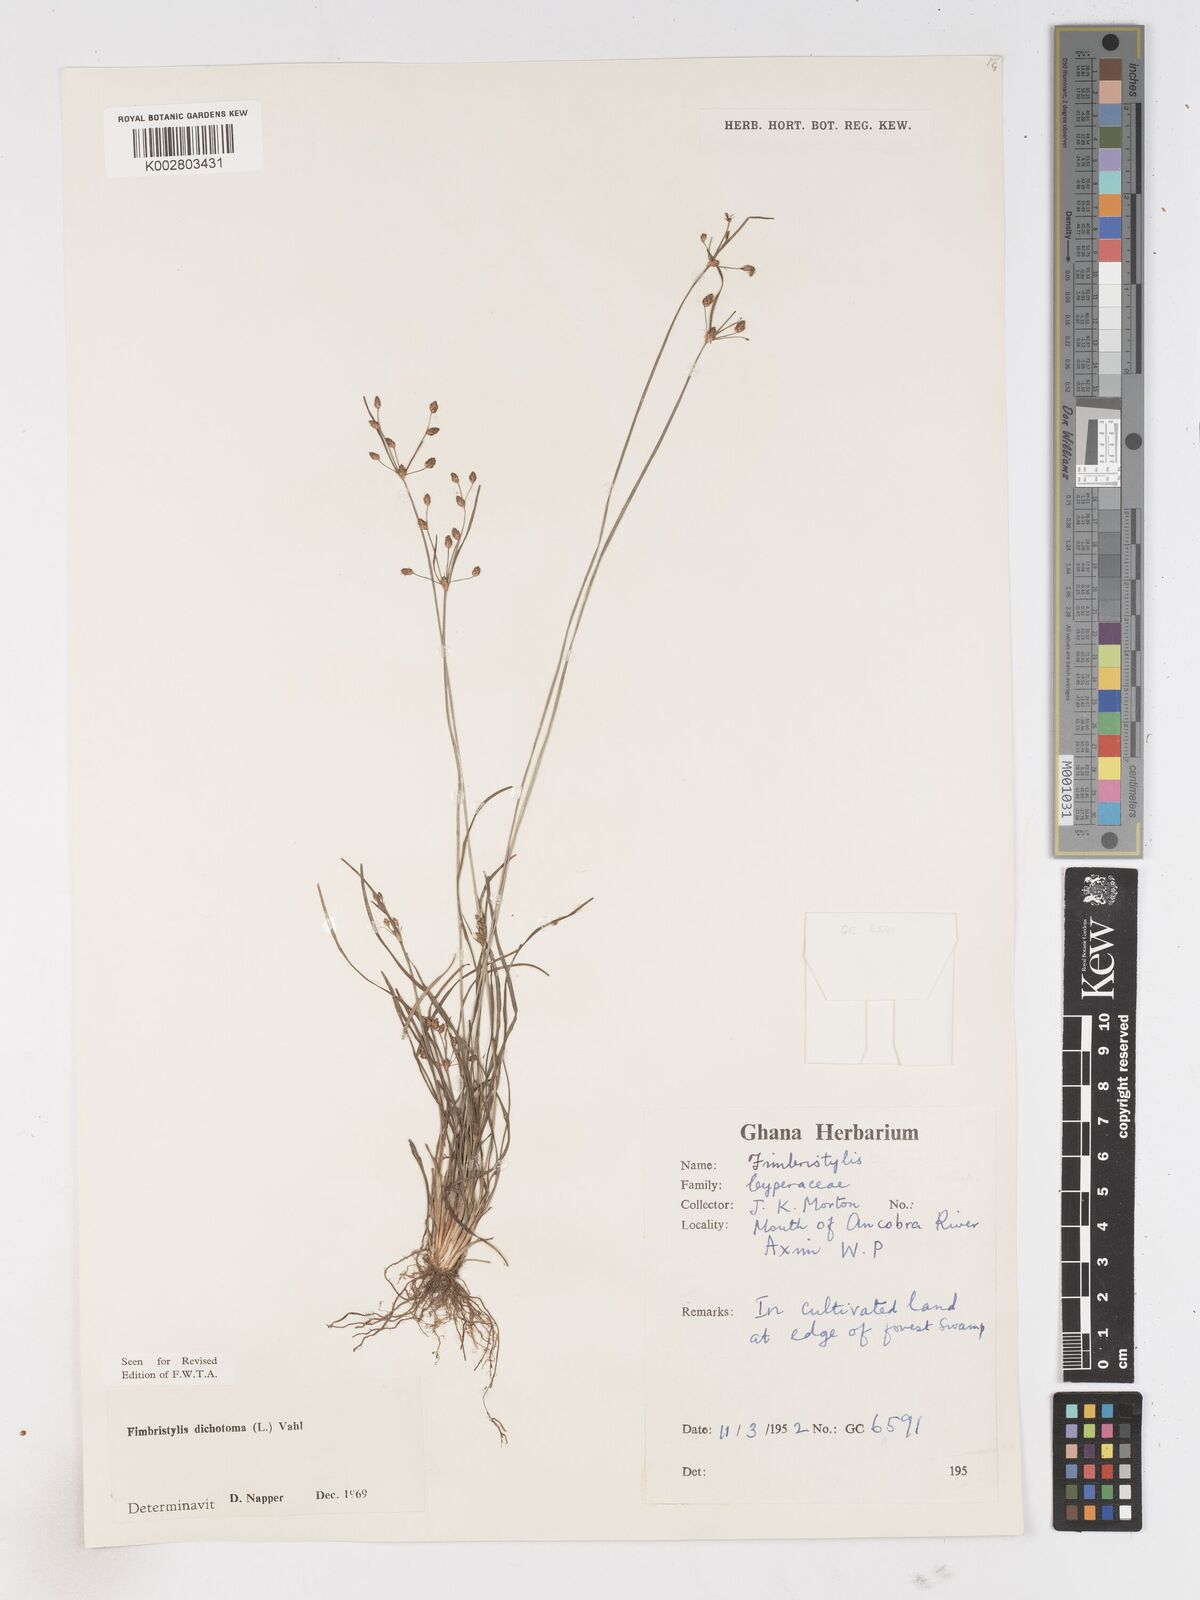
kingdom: Plantae
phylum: Tracheophyta
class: Liliopsida
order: Poales
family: Cyperaceae
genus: Fimbristylis
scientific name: Fimbristylis dichotoma
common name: Forked fimbry
